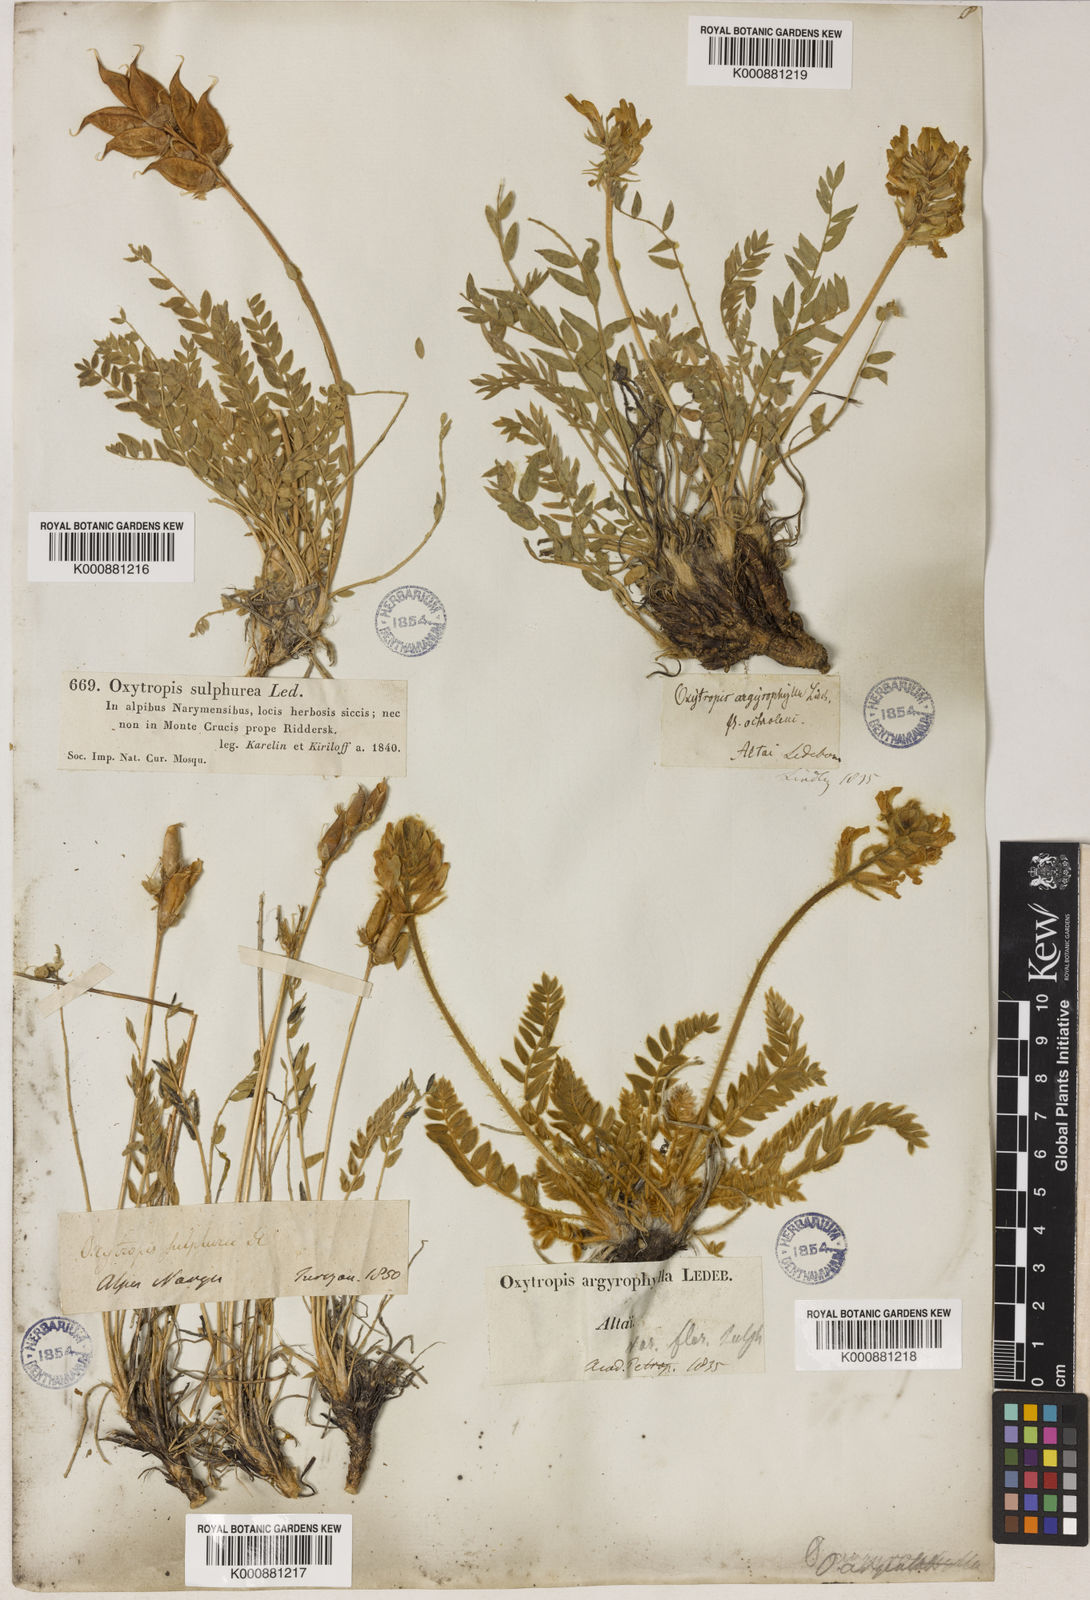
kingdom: Plantae
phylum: Tracheophyta
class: Magnoliopsida
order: Fabales
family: Fabaceae
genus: Oxytropis
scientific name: Oxytropis sulphurea
